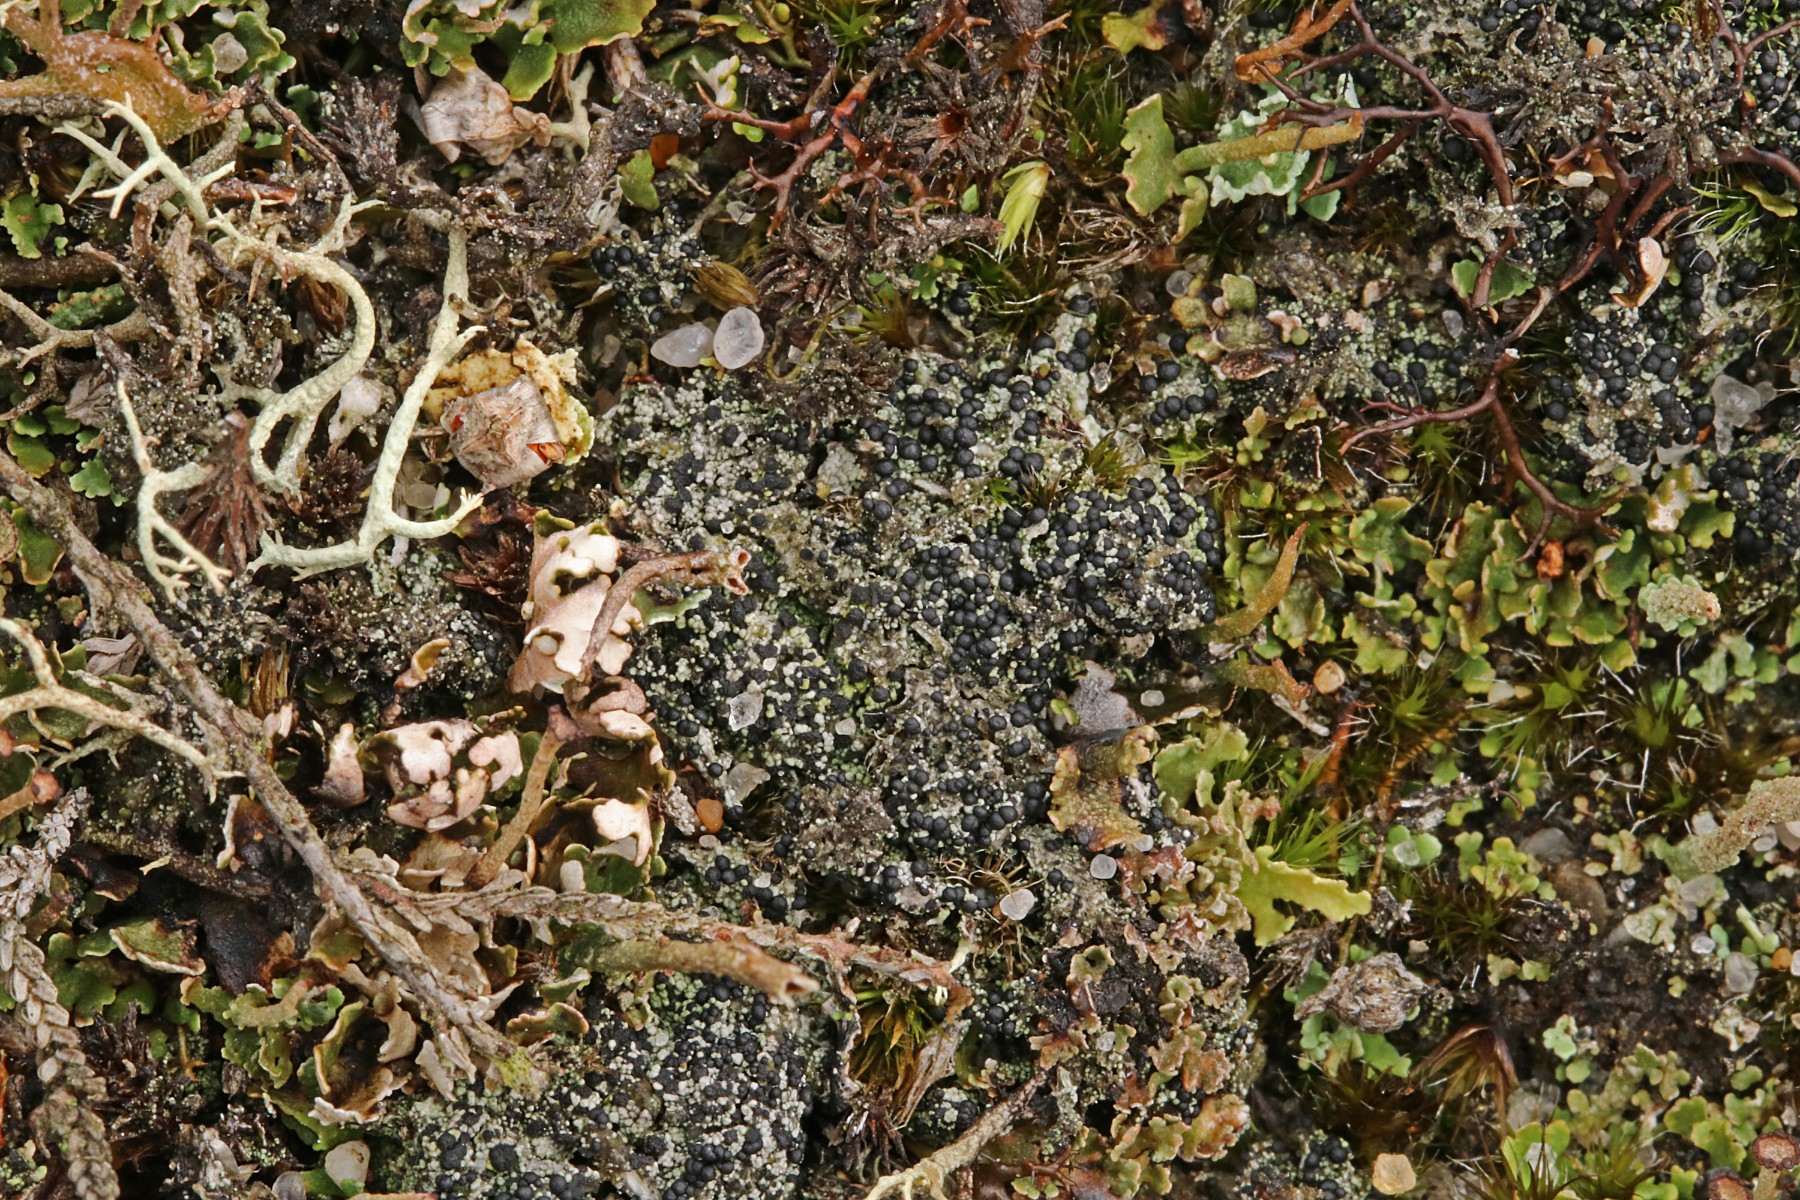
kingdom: Fungi
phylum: Ascomycota
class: Lecanoromycetes
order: Lecanorales
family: Byssolomataceae
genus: Micarea
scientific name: Micarea lignaria
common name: tørve-knaplav
